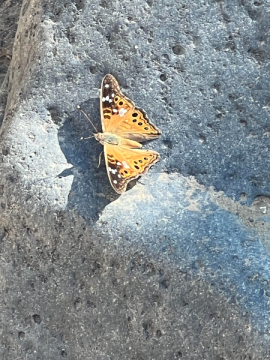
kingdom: Animalia
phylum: Arthropoda
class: Insecta
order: Lepidoptera
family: Nymphalidae
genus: Asterocampa
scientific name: Asterocampa leilia
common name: Empress Leilia
